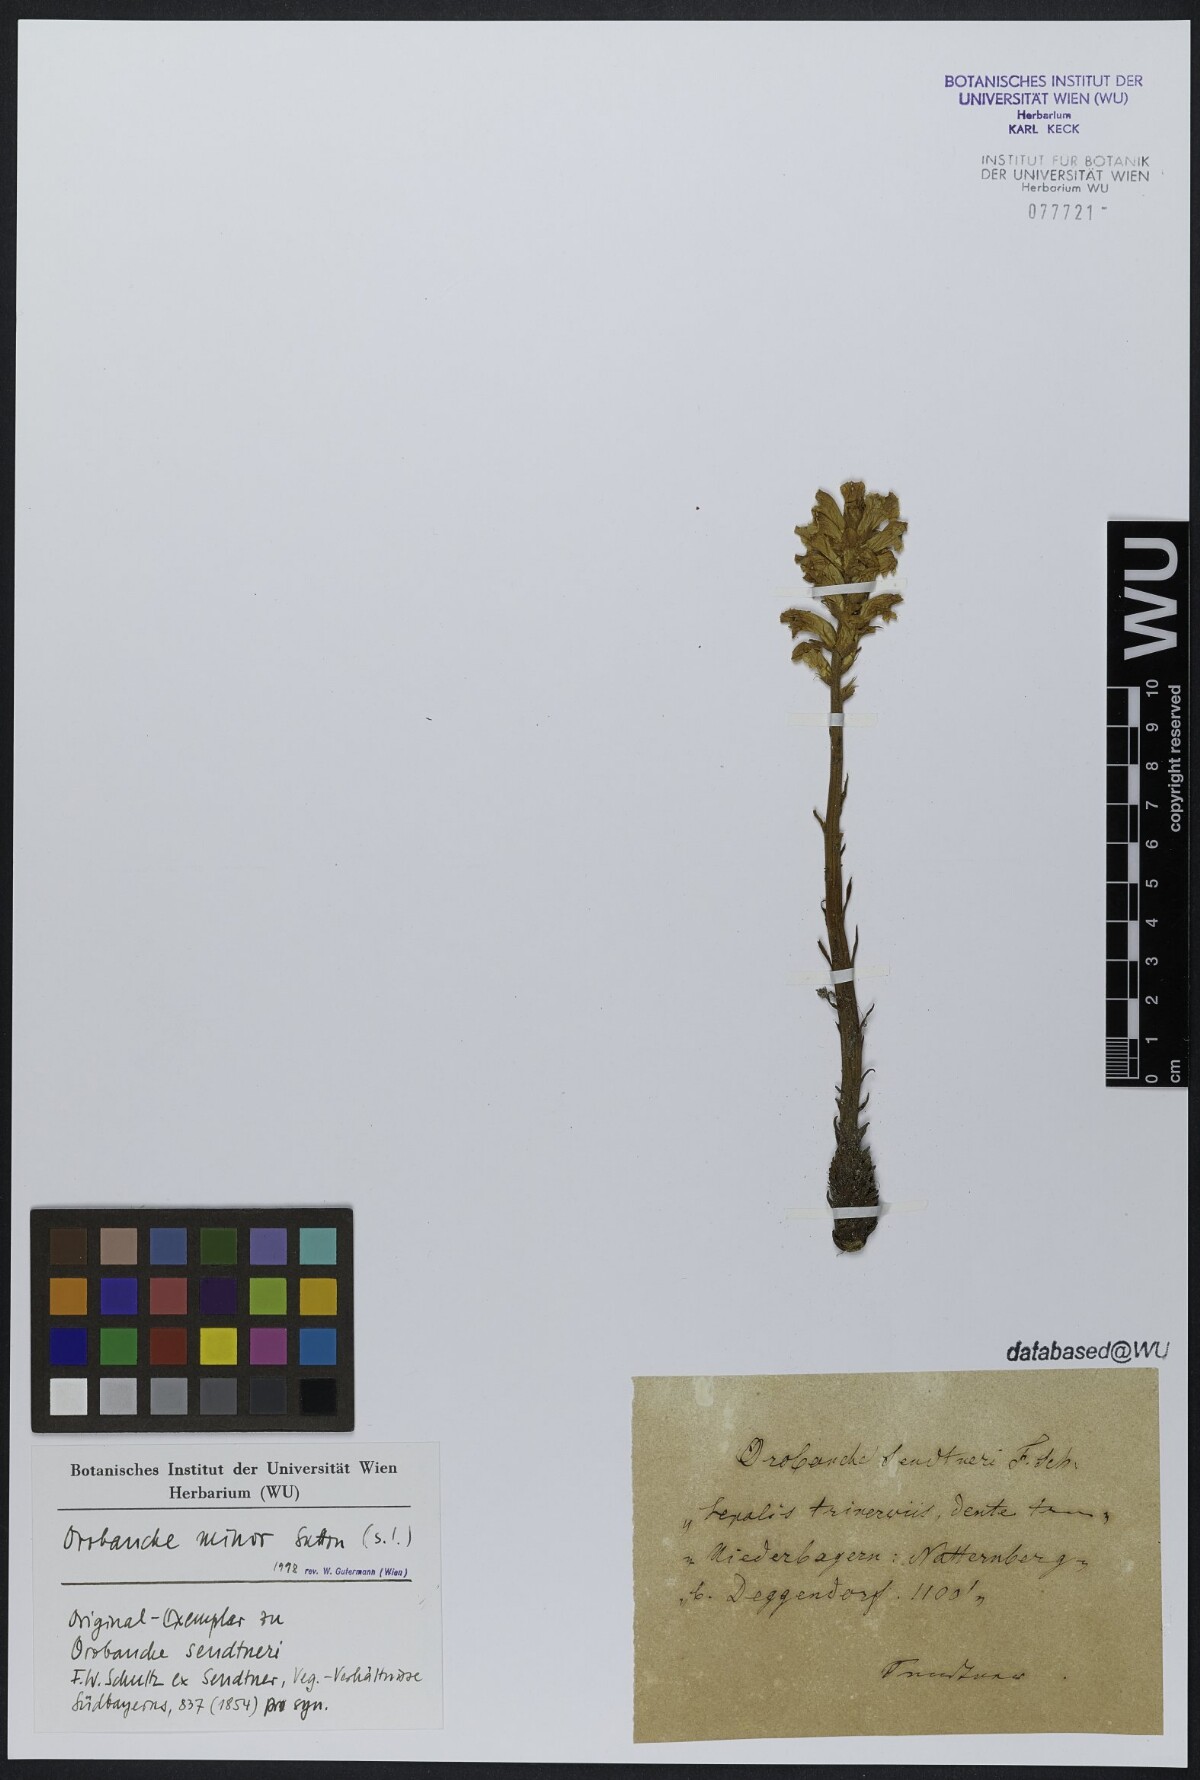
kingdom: Plantae
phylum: Tracheophyta
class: Magnoliopsida
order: Lamiales
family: Orobanchaceae
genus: Orobanche
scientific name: Orobanche
